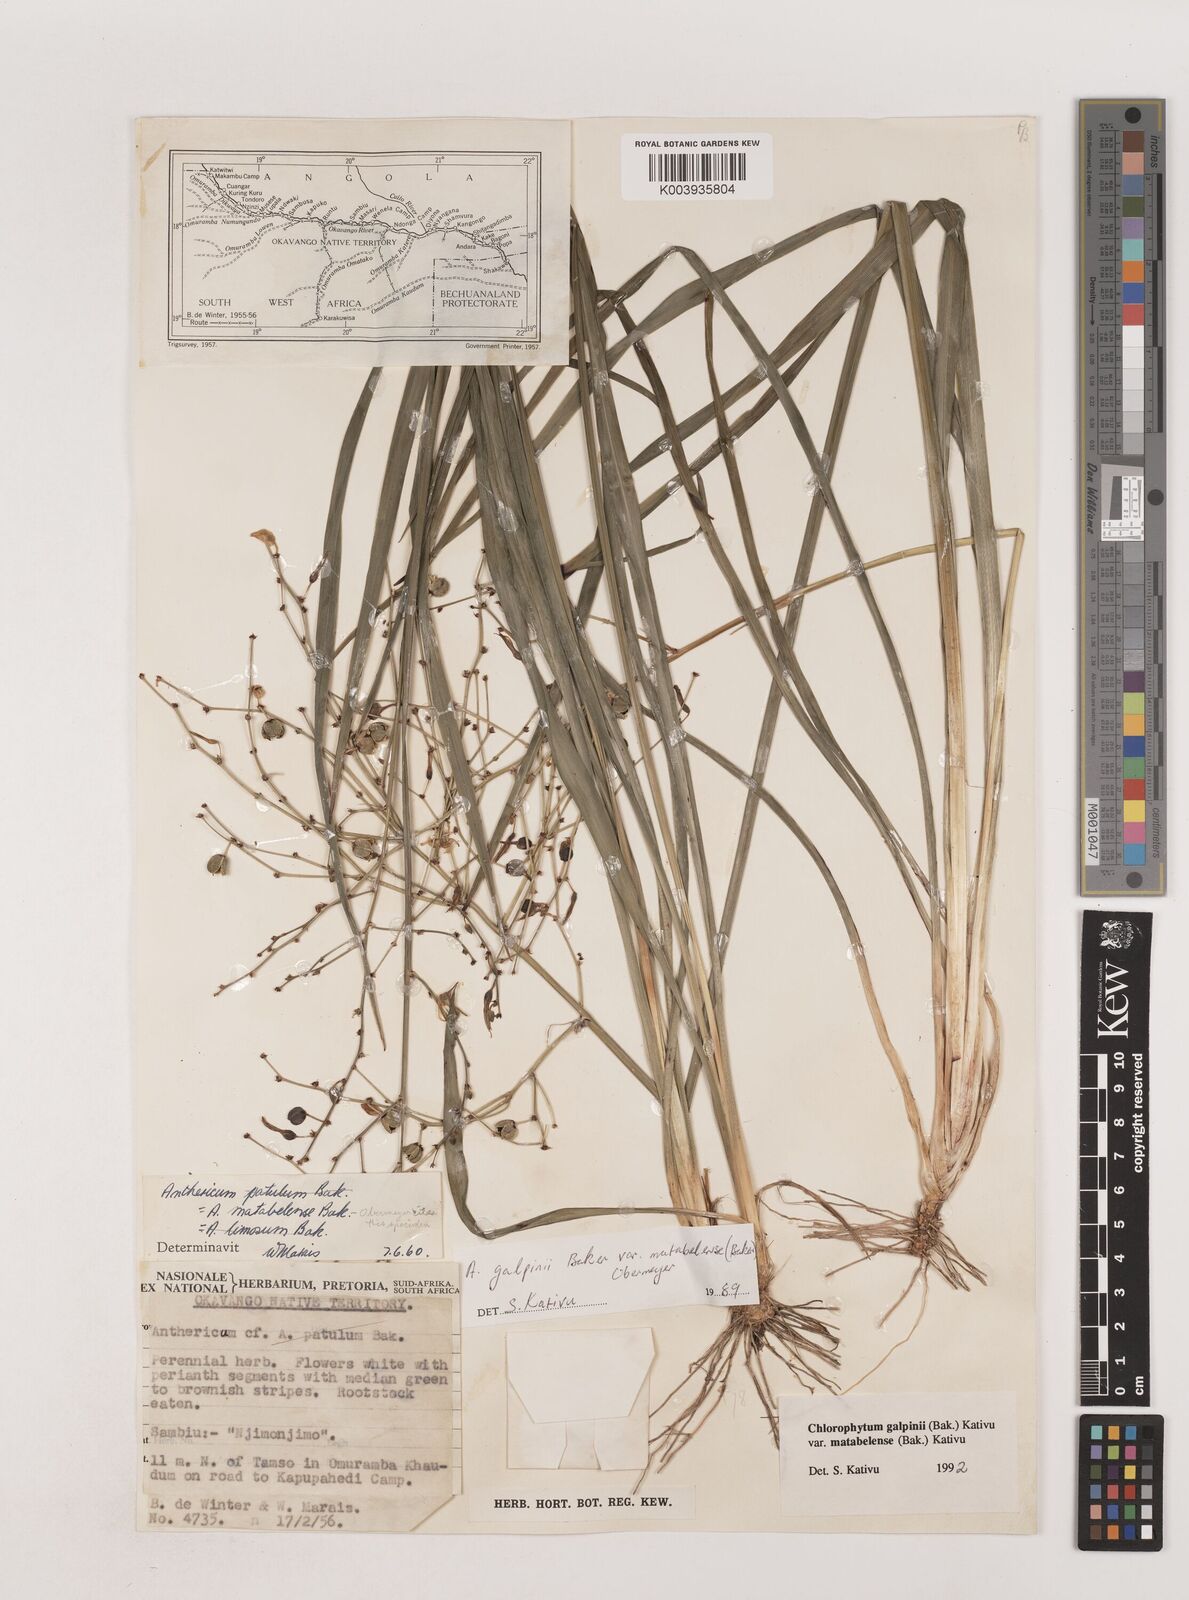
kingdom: Plantae
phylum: Tracheophyta
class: Liliopsida
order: Asparagales
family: Asparagaceae
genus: Chlorophytum
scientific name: Chlorophytum galpinii
